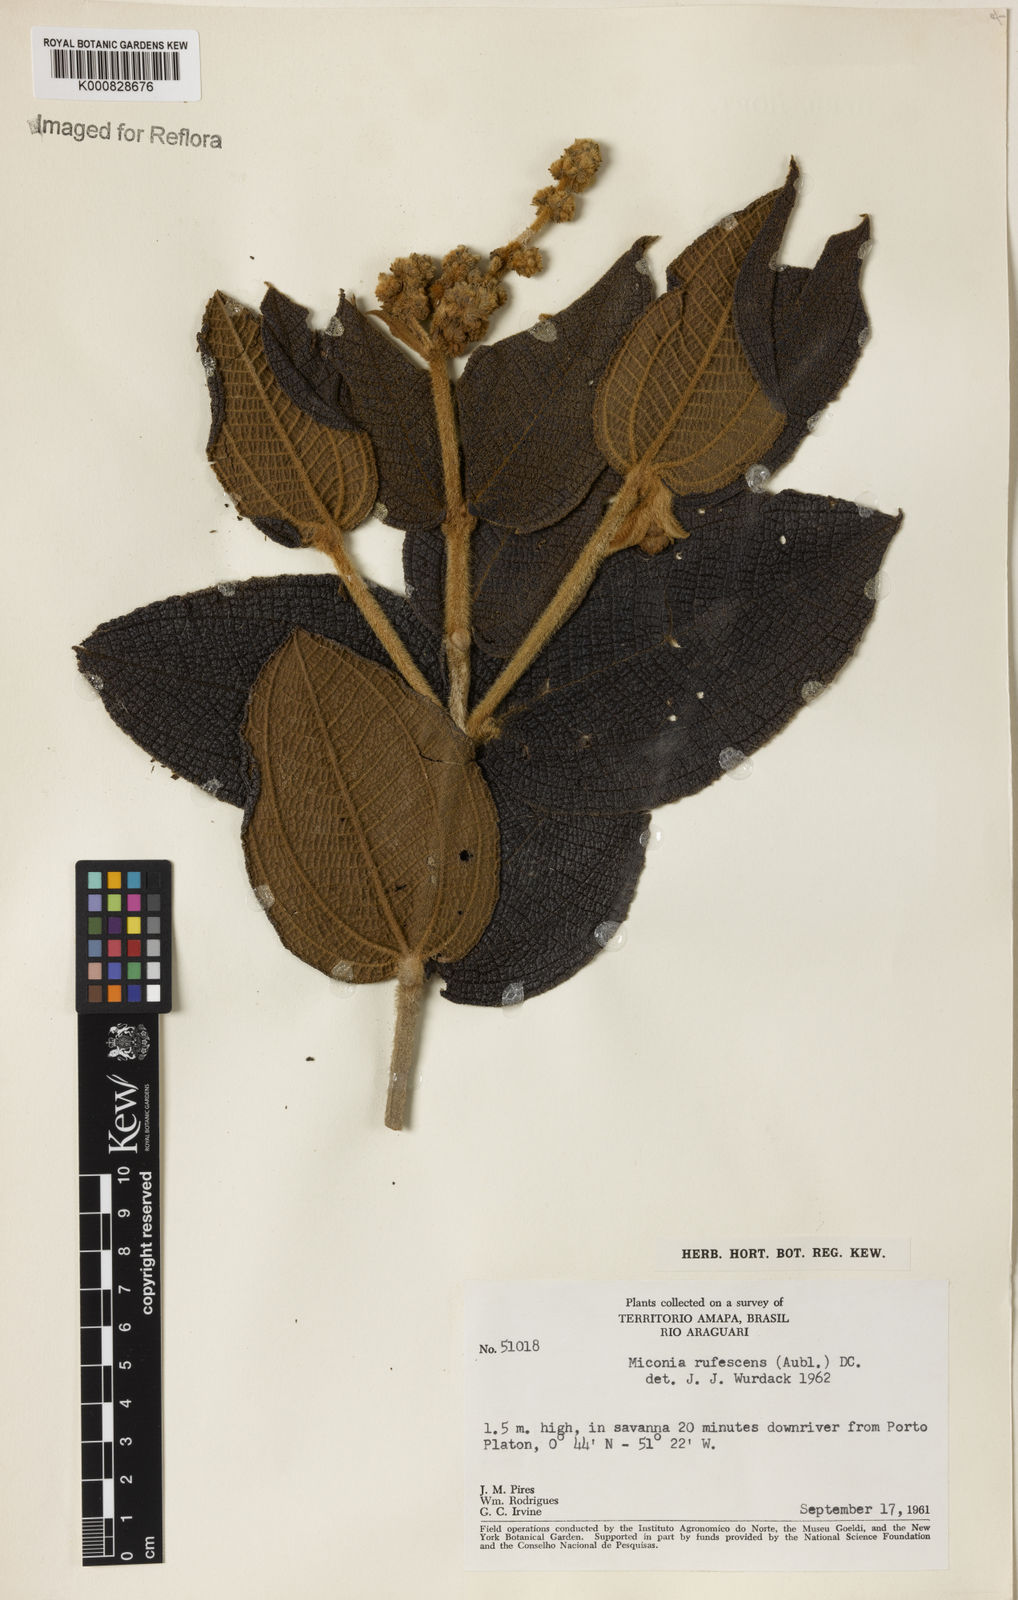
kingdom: Plantae
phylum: Tracheophyta
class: Magnoliopsida
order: Myrtales
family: Melastomataceae
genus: Miconia
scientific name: Miconia rufescens
